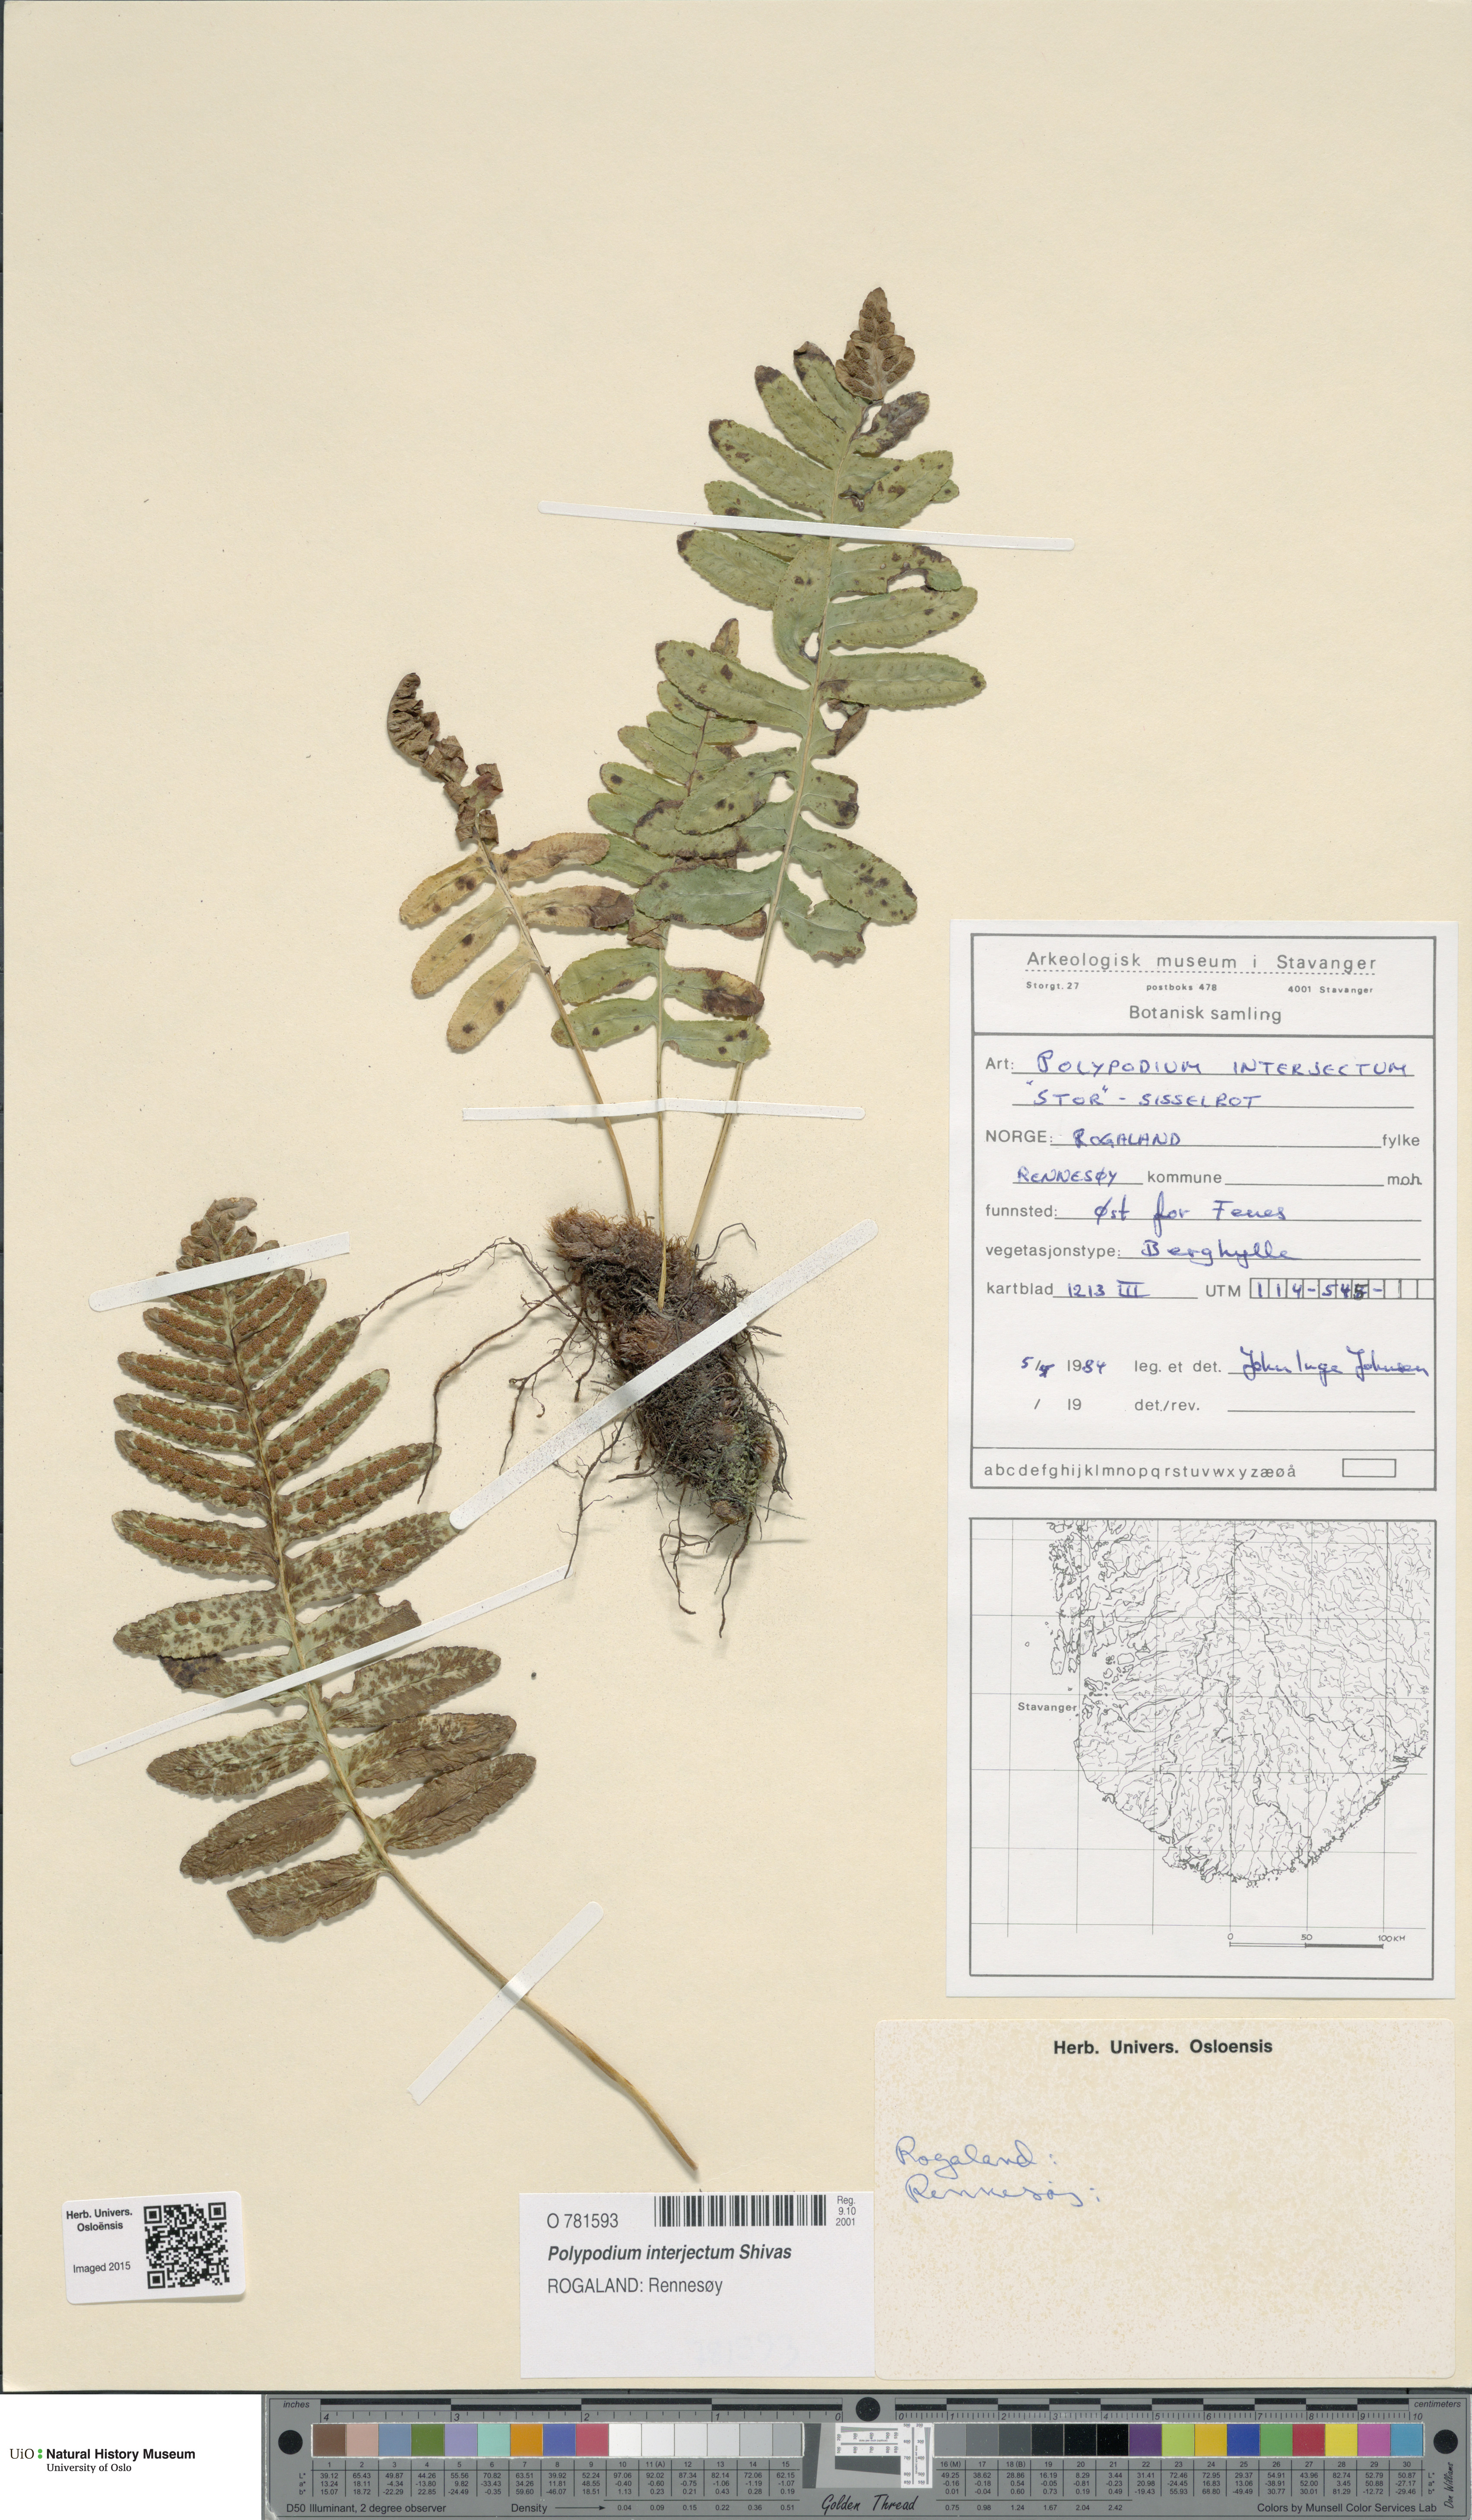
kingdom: Plantae
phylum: Tracheophyta
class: Polypodiopsida
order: Polypodiales
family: Polypodiaceae
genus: Polypodium
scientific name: Polypodium interjectum
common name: Intermediate polypody
